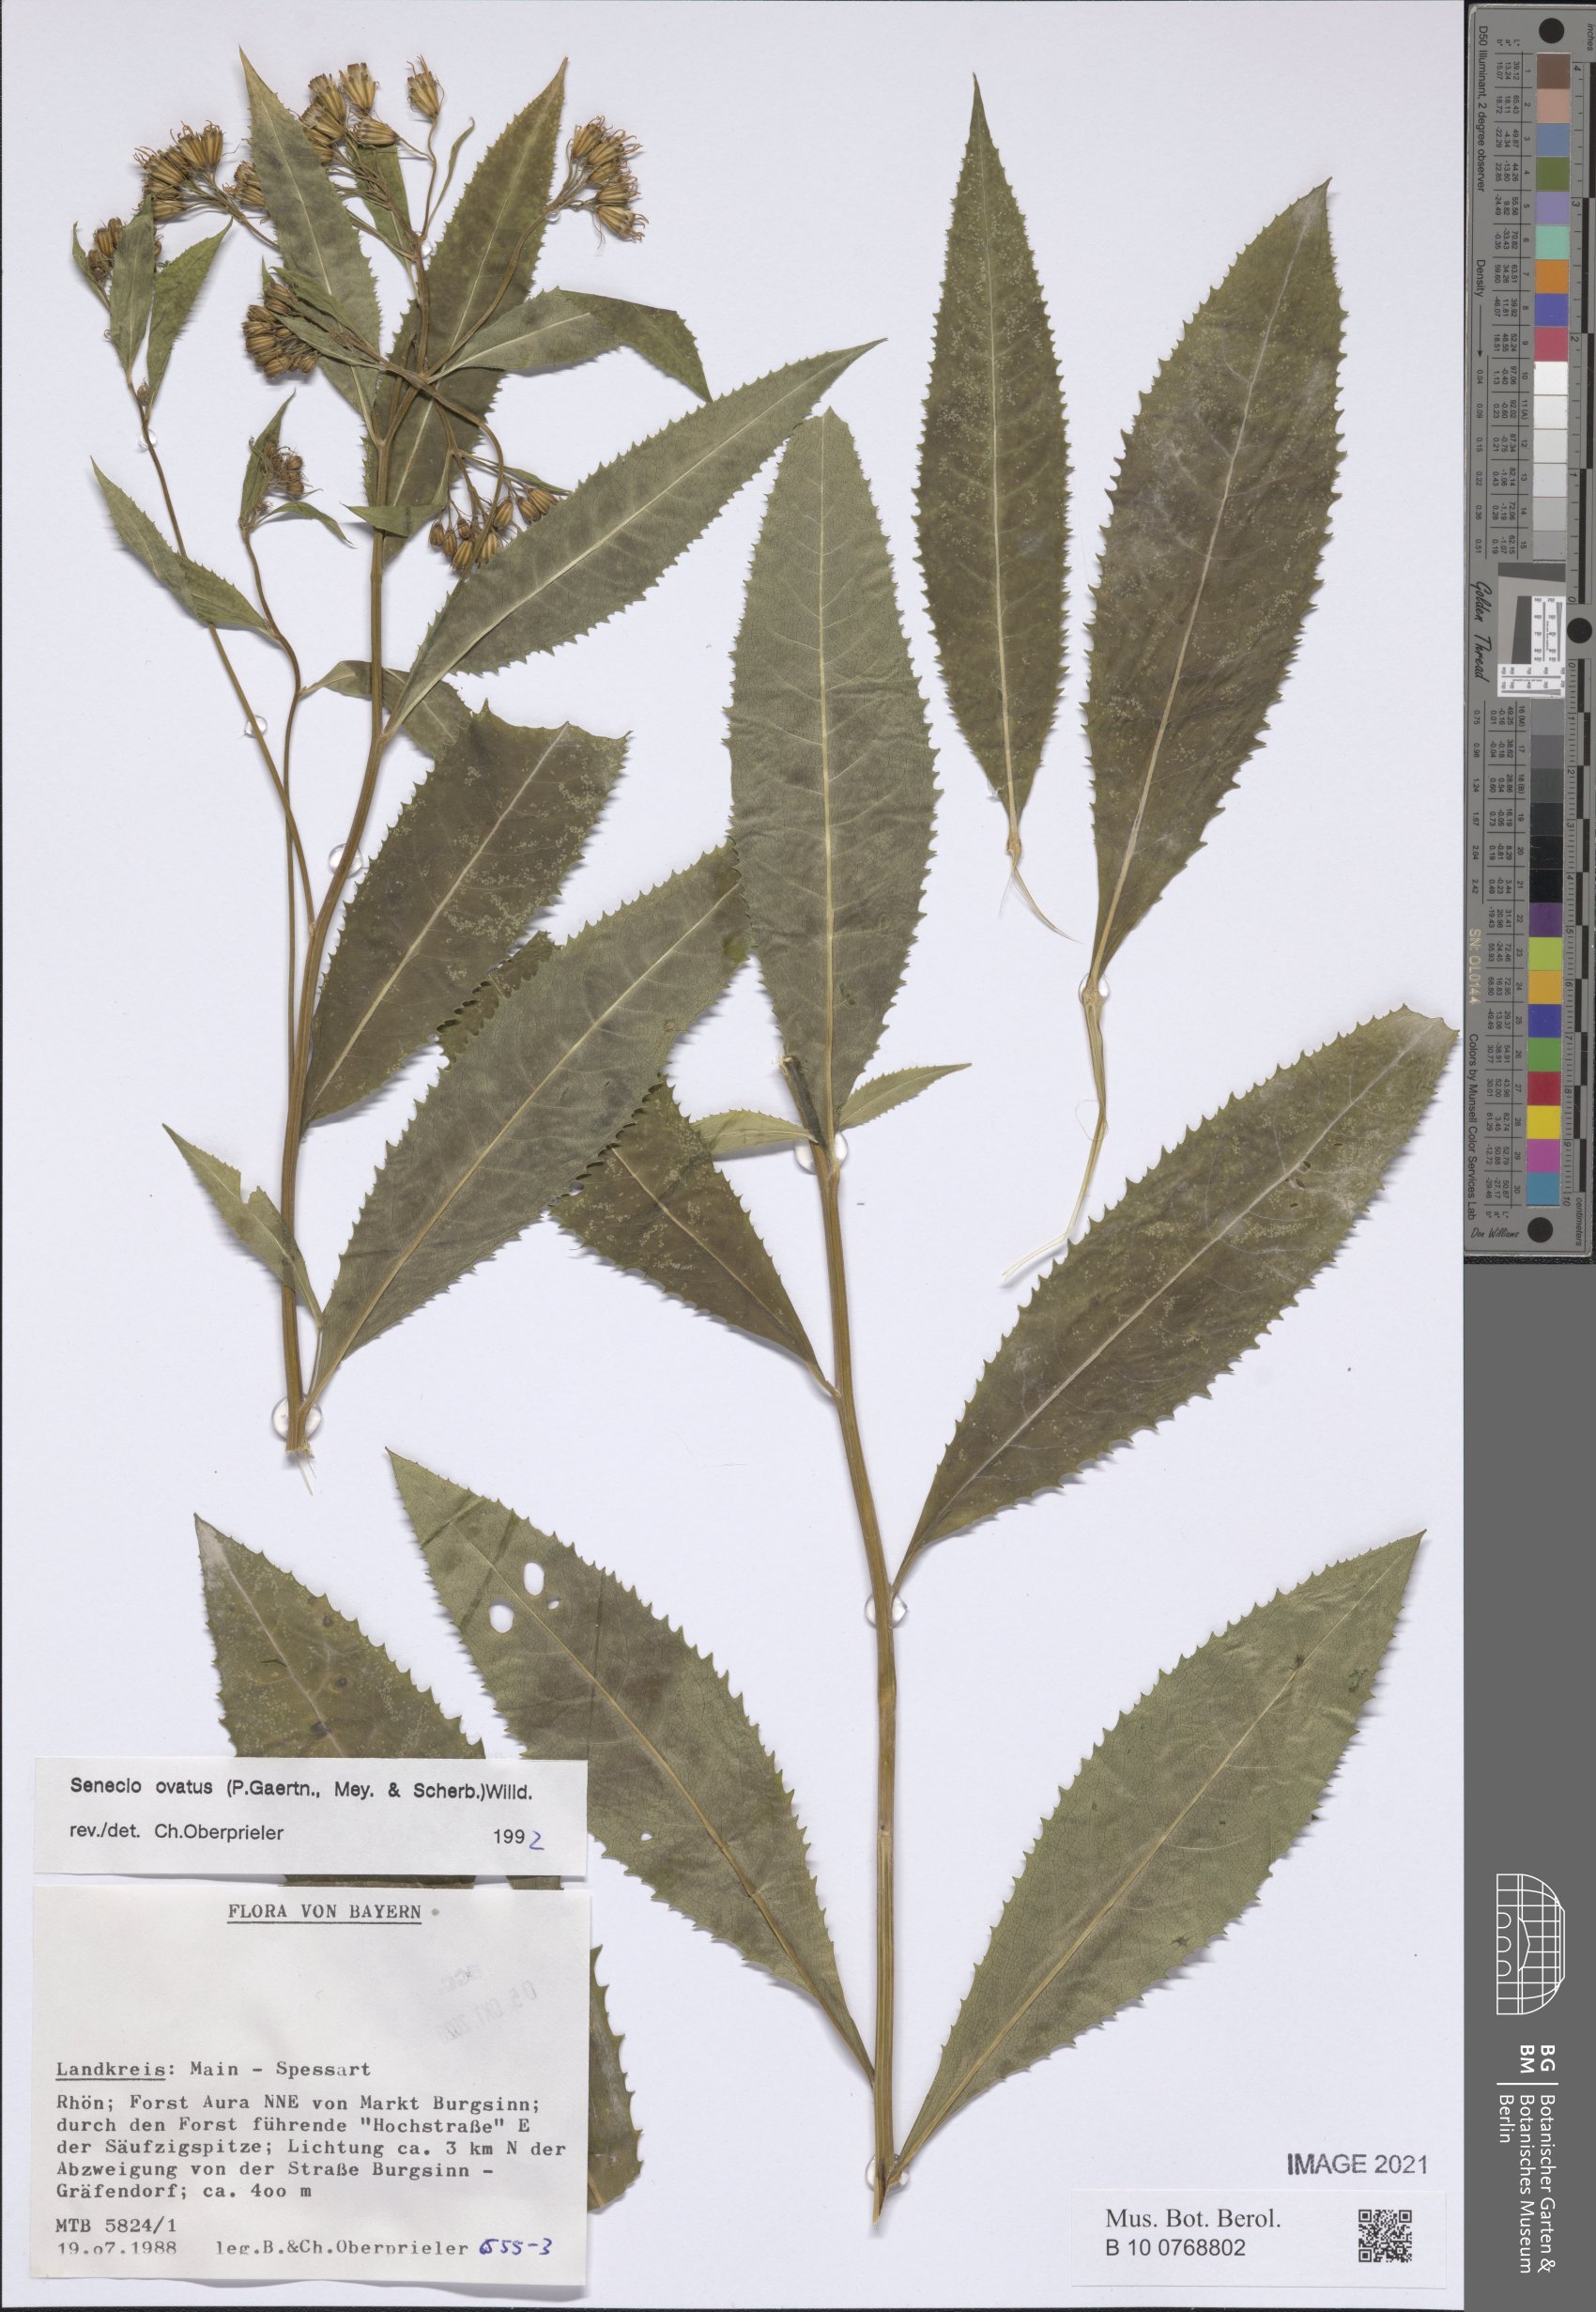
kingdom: Plantae
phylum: Tracheophyta
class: Magnoliopsida
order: Asterales
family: Asteraceae
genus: Senecio
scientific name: Senecio ovatus
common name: Wood ragwort
